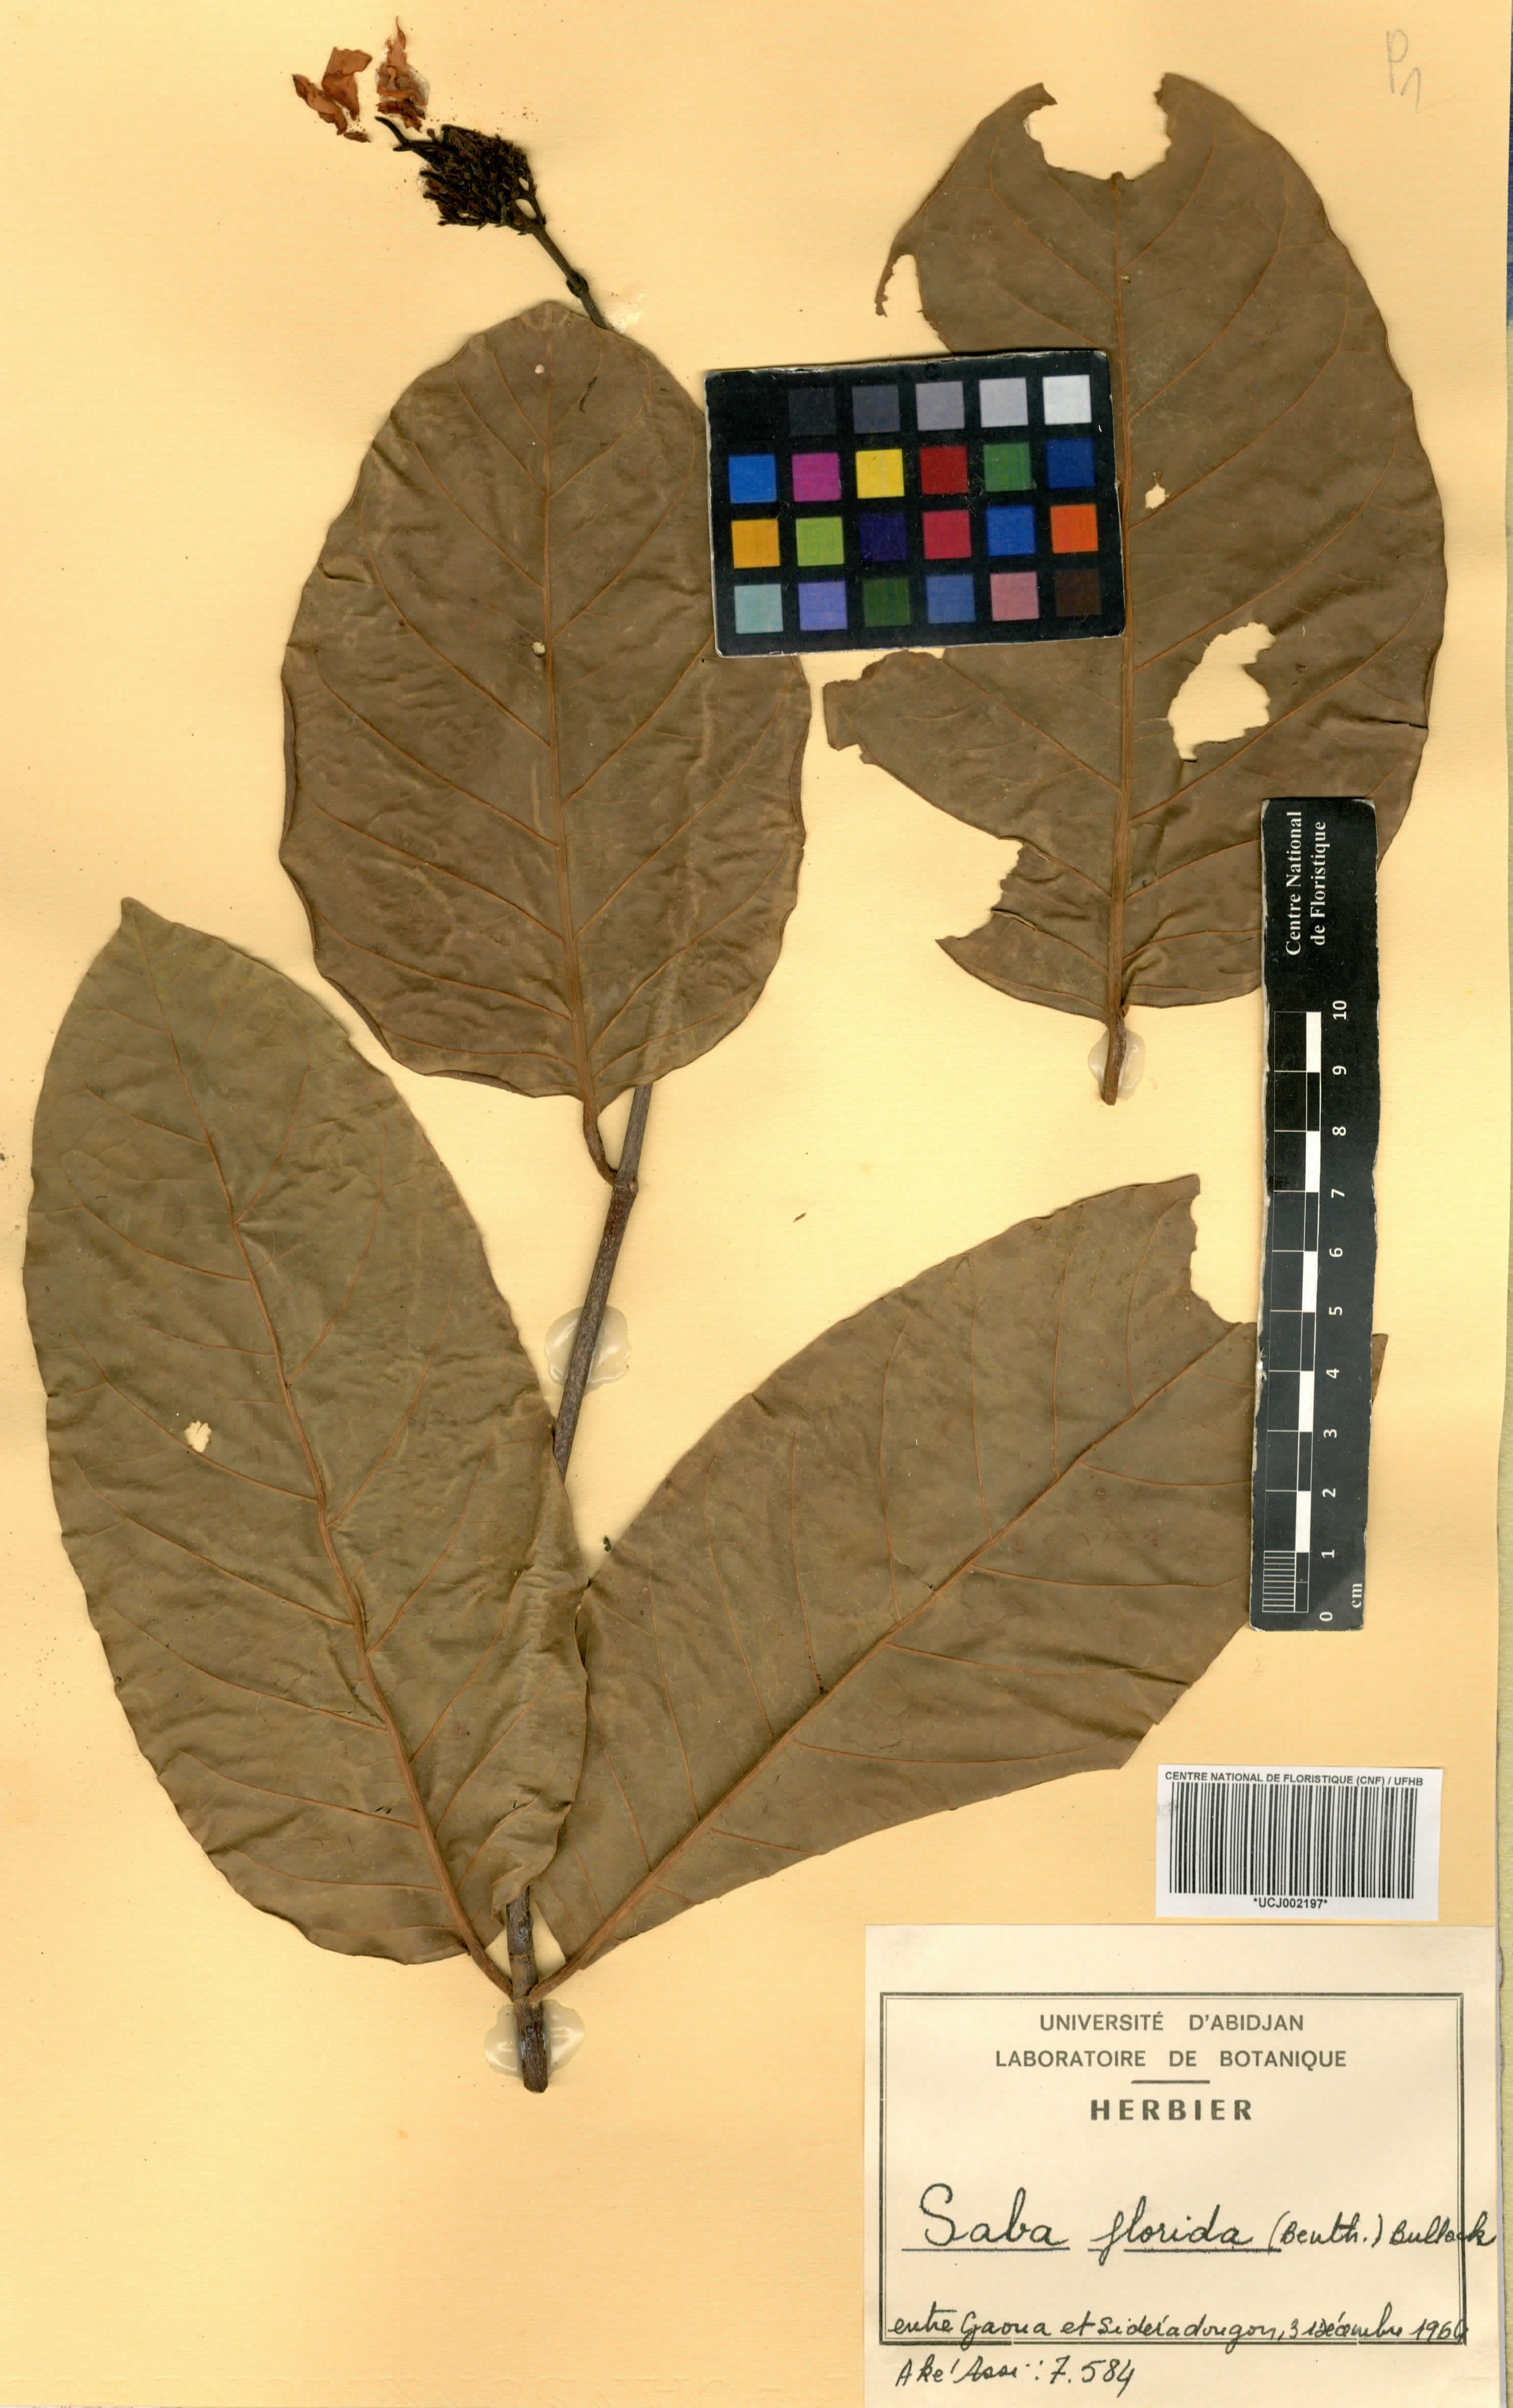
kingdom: Plantae
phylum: Tracheophyta
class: Magnoliopsida
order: Gentianales
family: Apocynaceae
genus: Saba
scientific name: Saba comorensis
